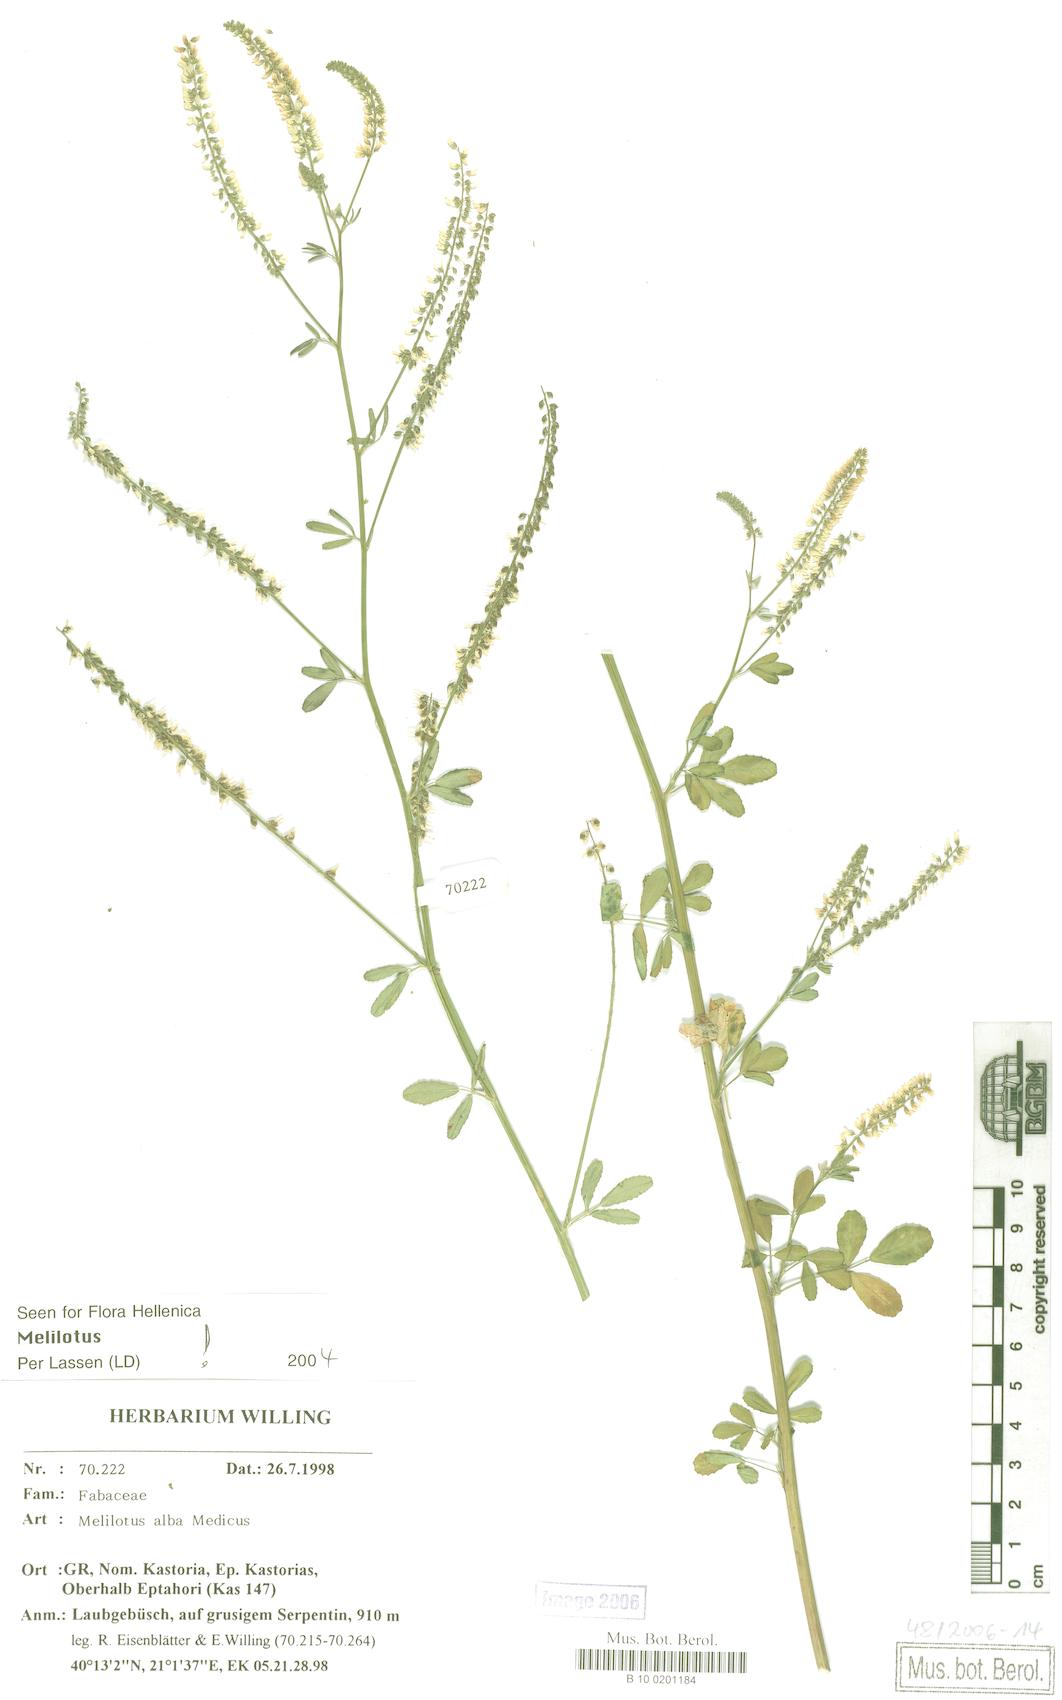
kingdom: Plantae
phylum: Tracheophyta
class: Magnoliopsida
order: Fabales
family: Fabaceae
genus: Melilotus
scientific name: Melilotus albus
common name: White melilot
